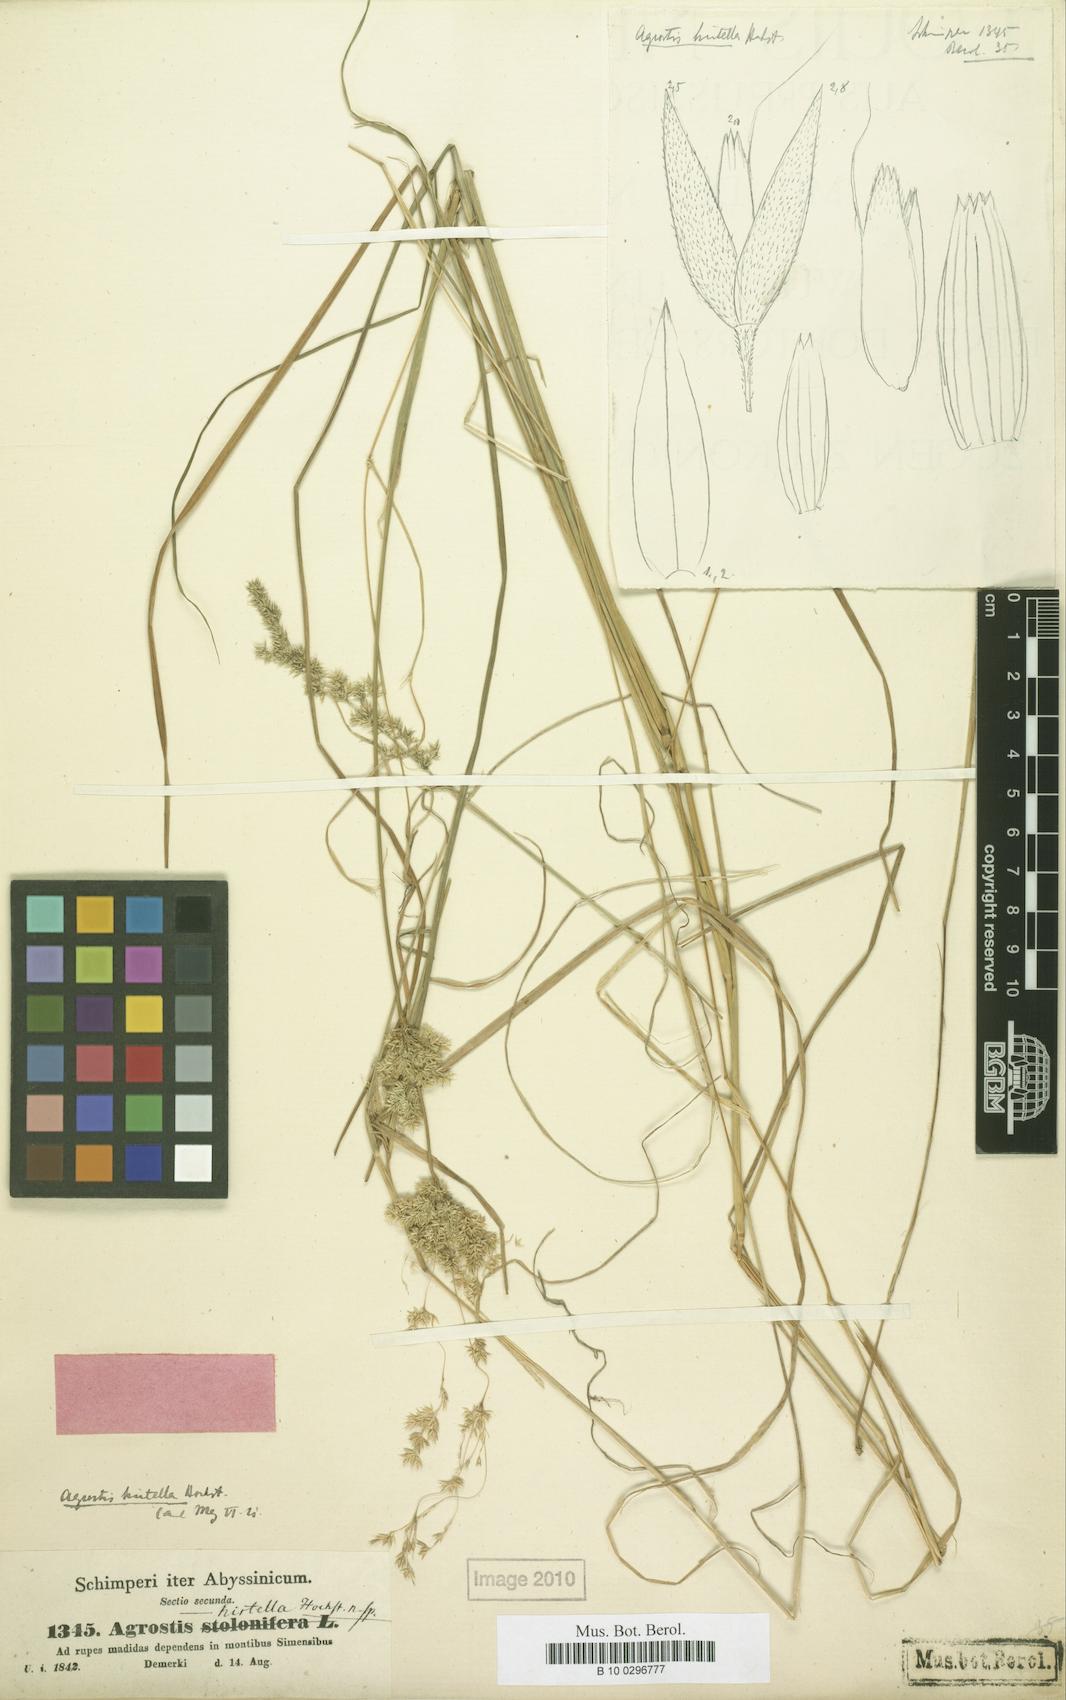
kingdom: Plantae
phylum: Tracheophyta
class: Liliopsida
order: Poales
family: Poaceae
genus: Polypogon
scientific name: Polypogon schimperianus
